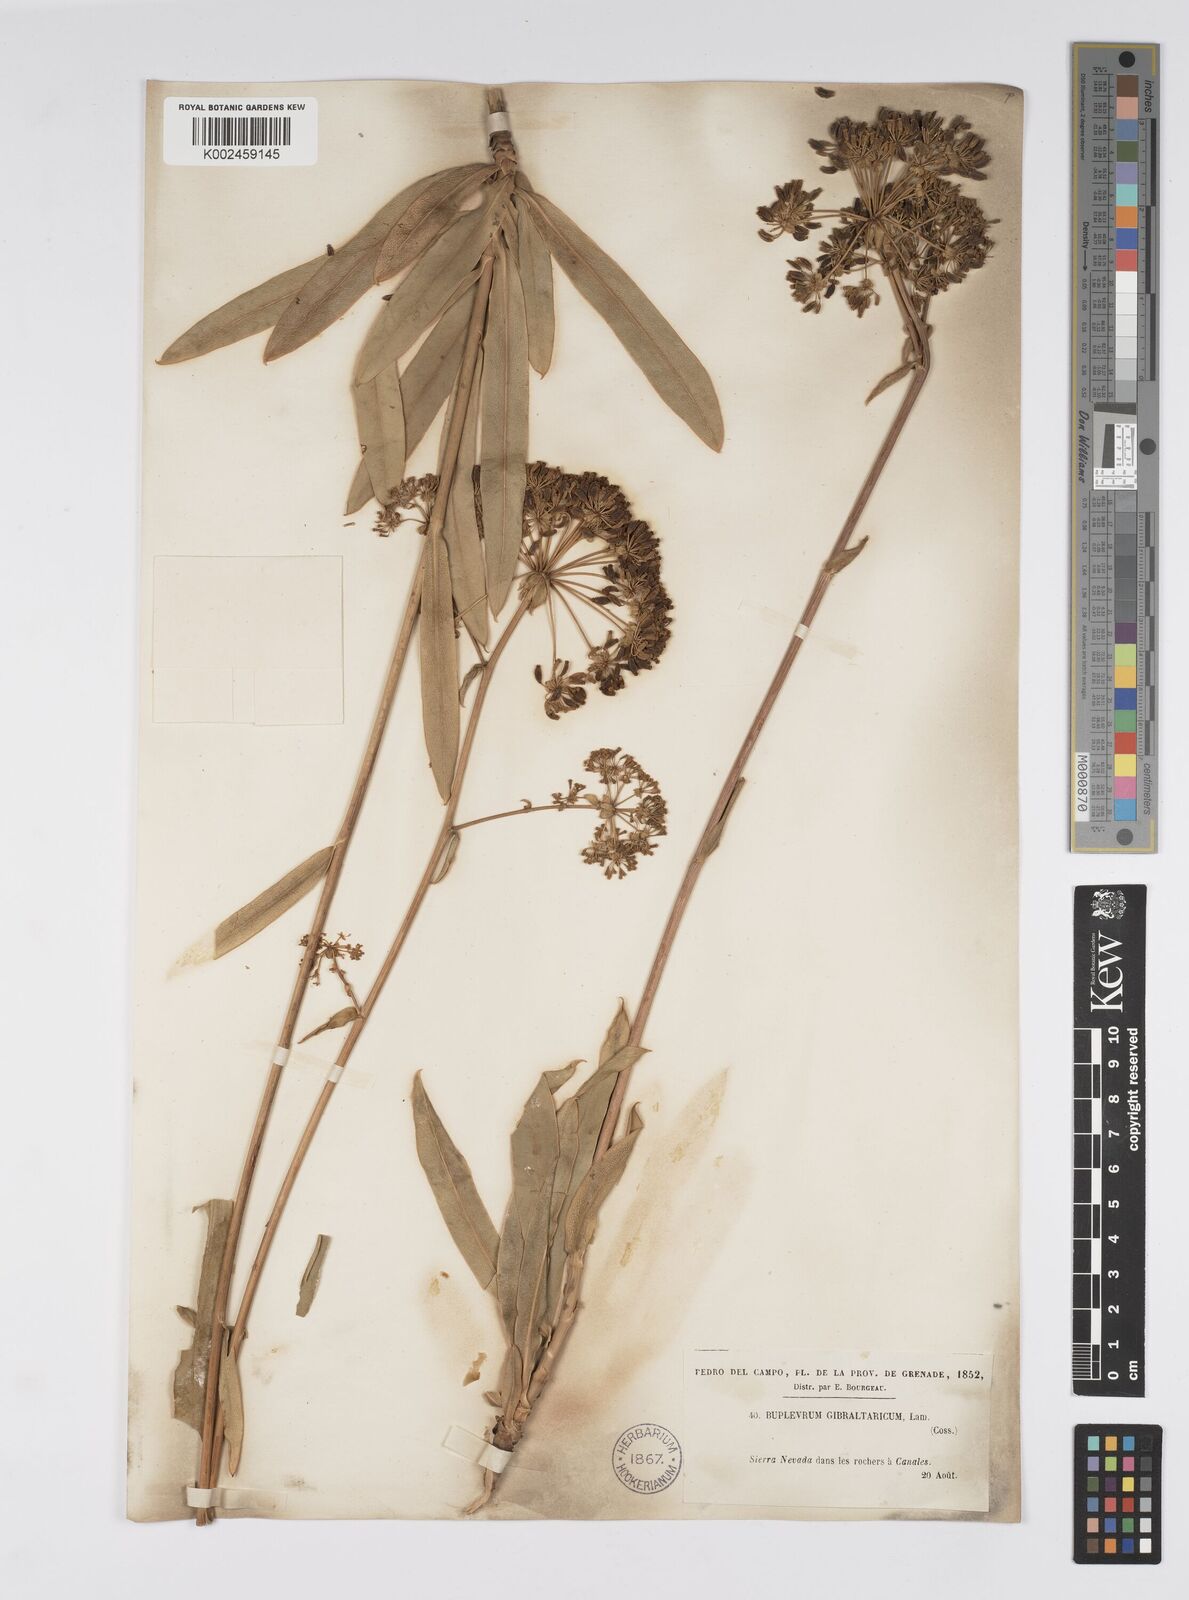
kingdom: Plantae
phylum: Tracheophyta
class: Magnoliopsida
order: Apiales
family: Apiaceae
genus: Bupleurum
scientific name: Bupleurum gibraltaricum
